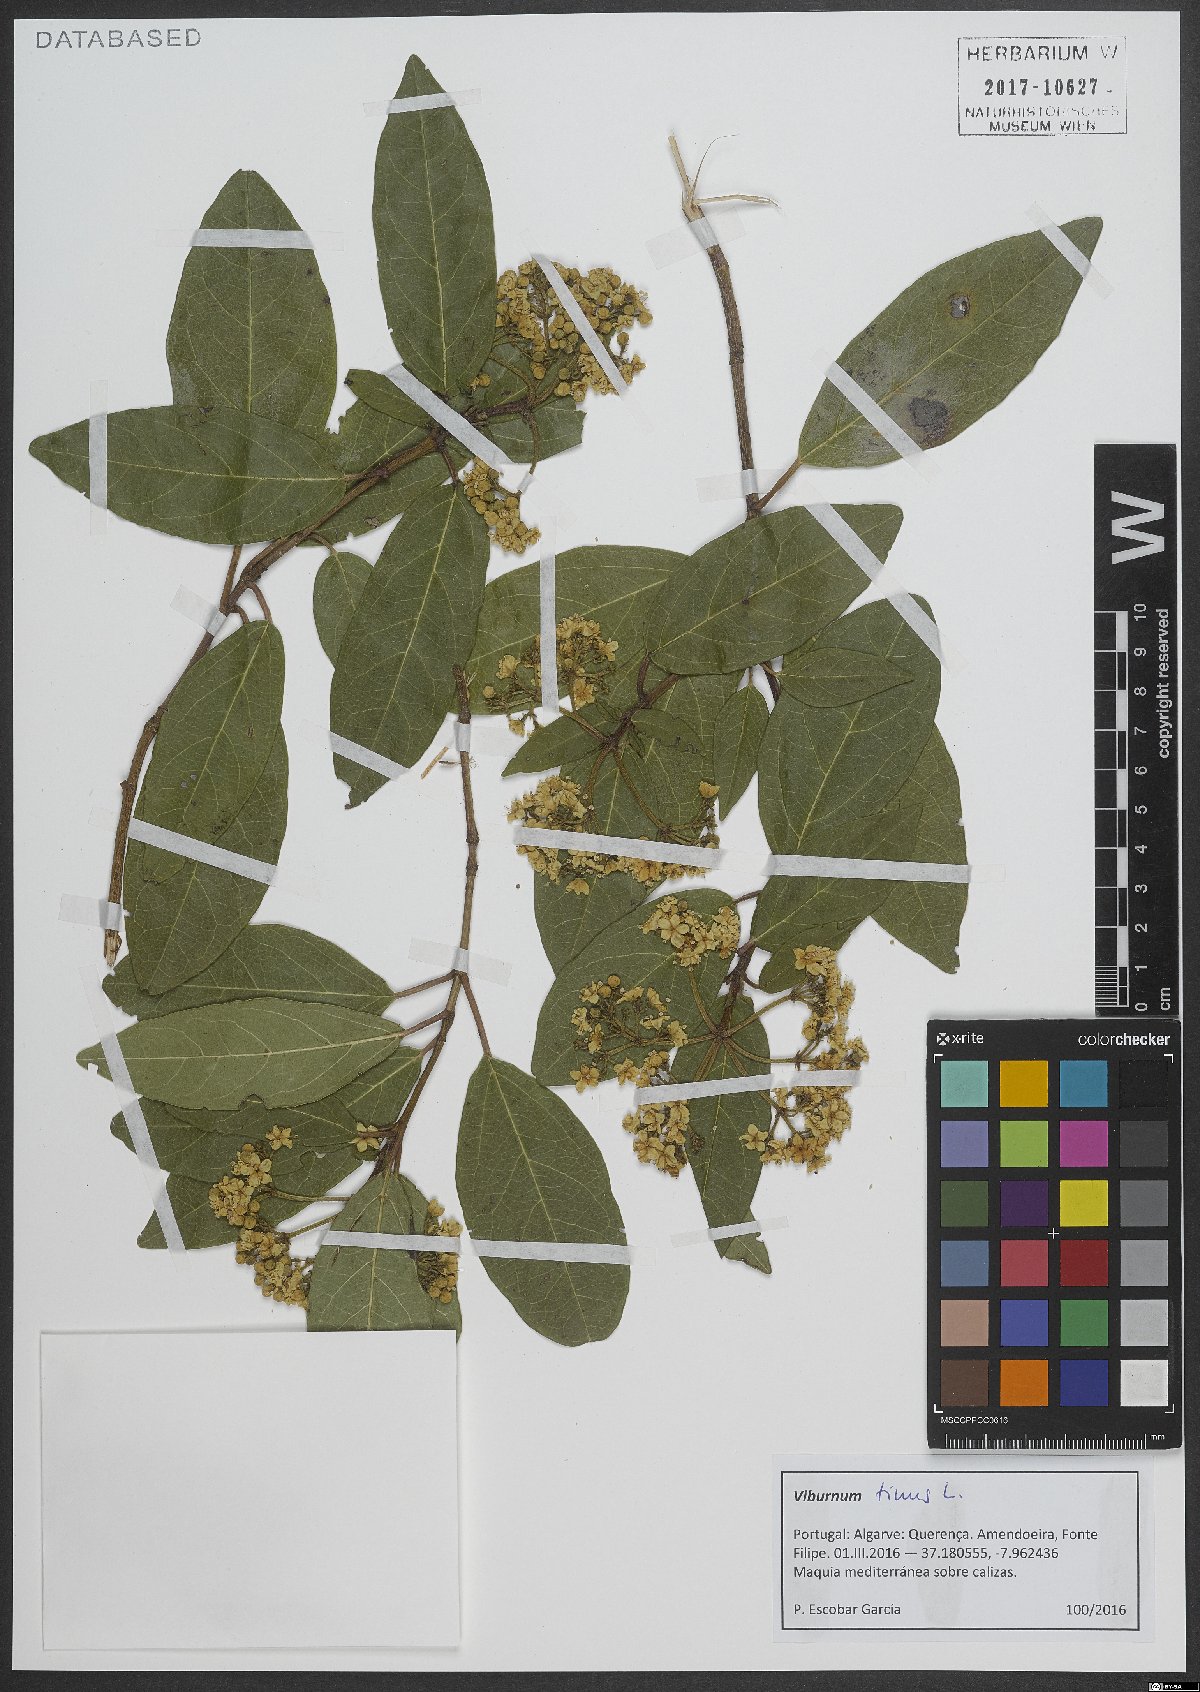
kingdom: Plantae
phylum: Tracheophyta
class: Magnoliopsida
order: Dipsacales
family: Viburnaceae
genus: Viburnum
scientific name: Viburnum tinus
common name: Laurustinus
